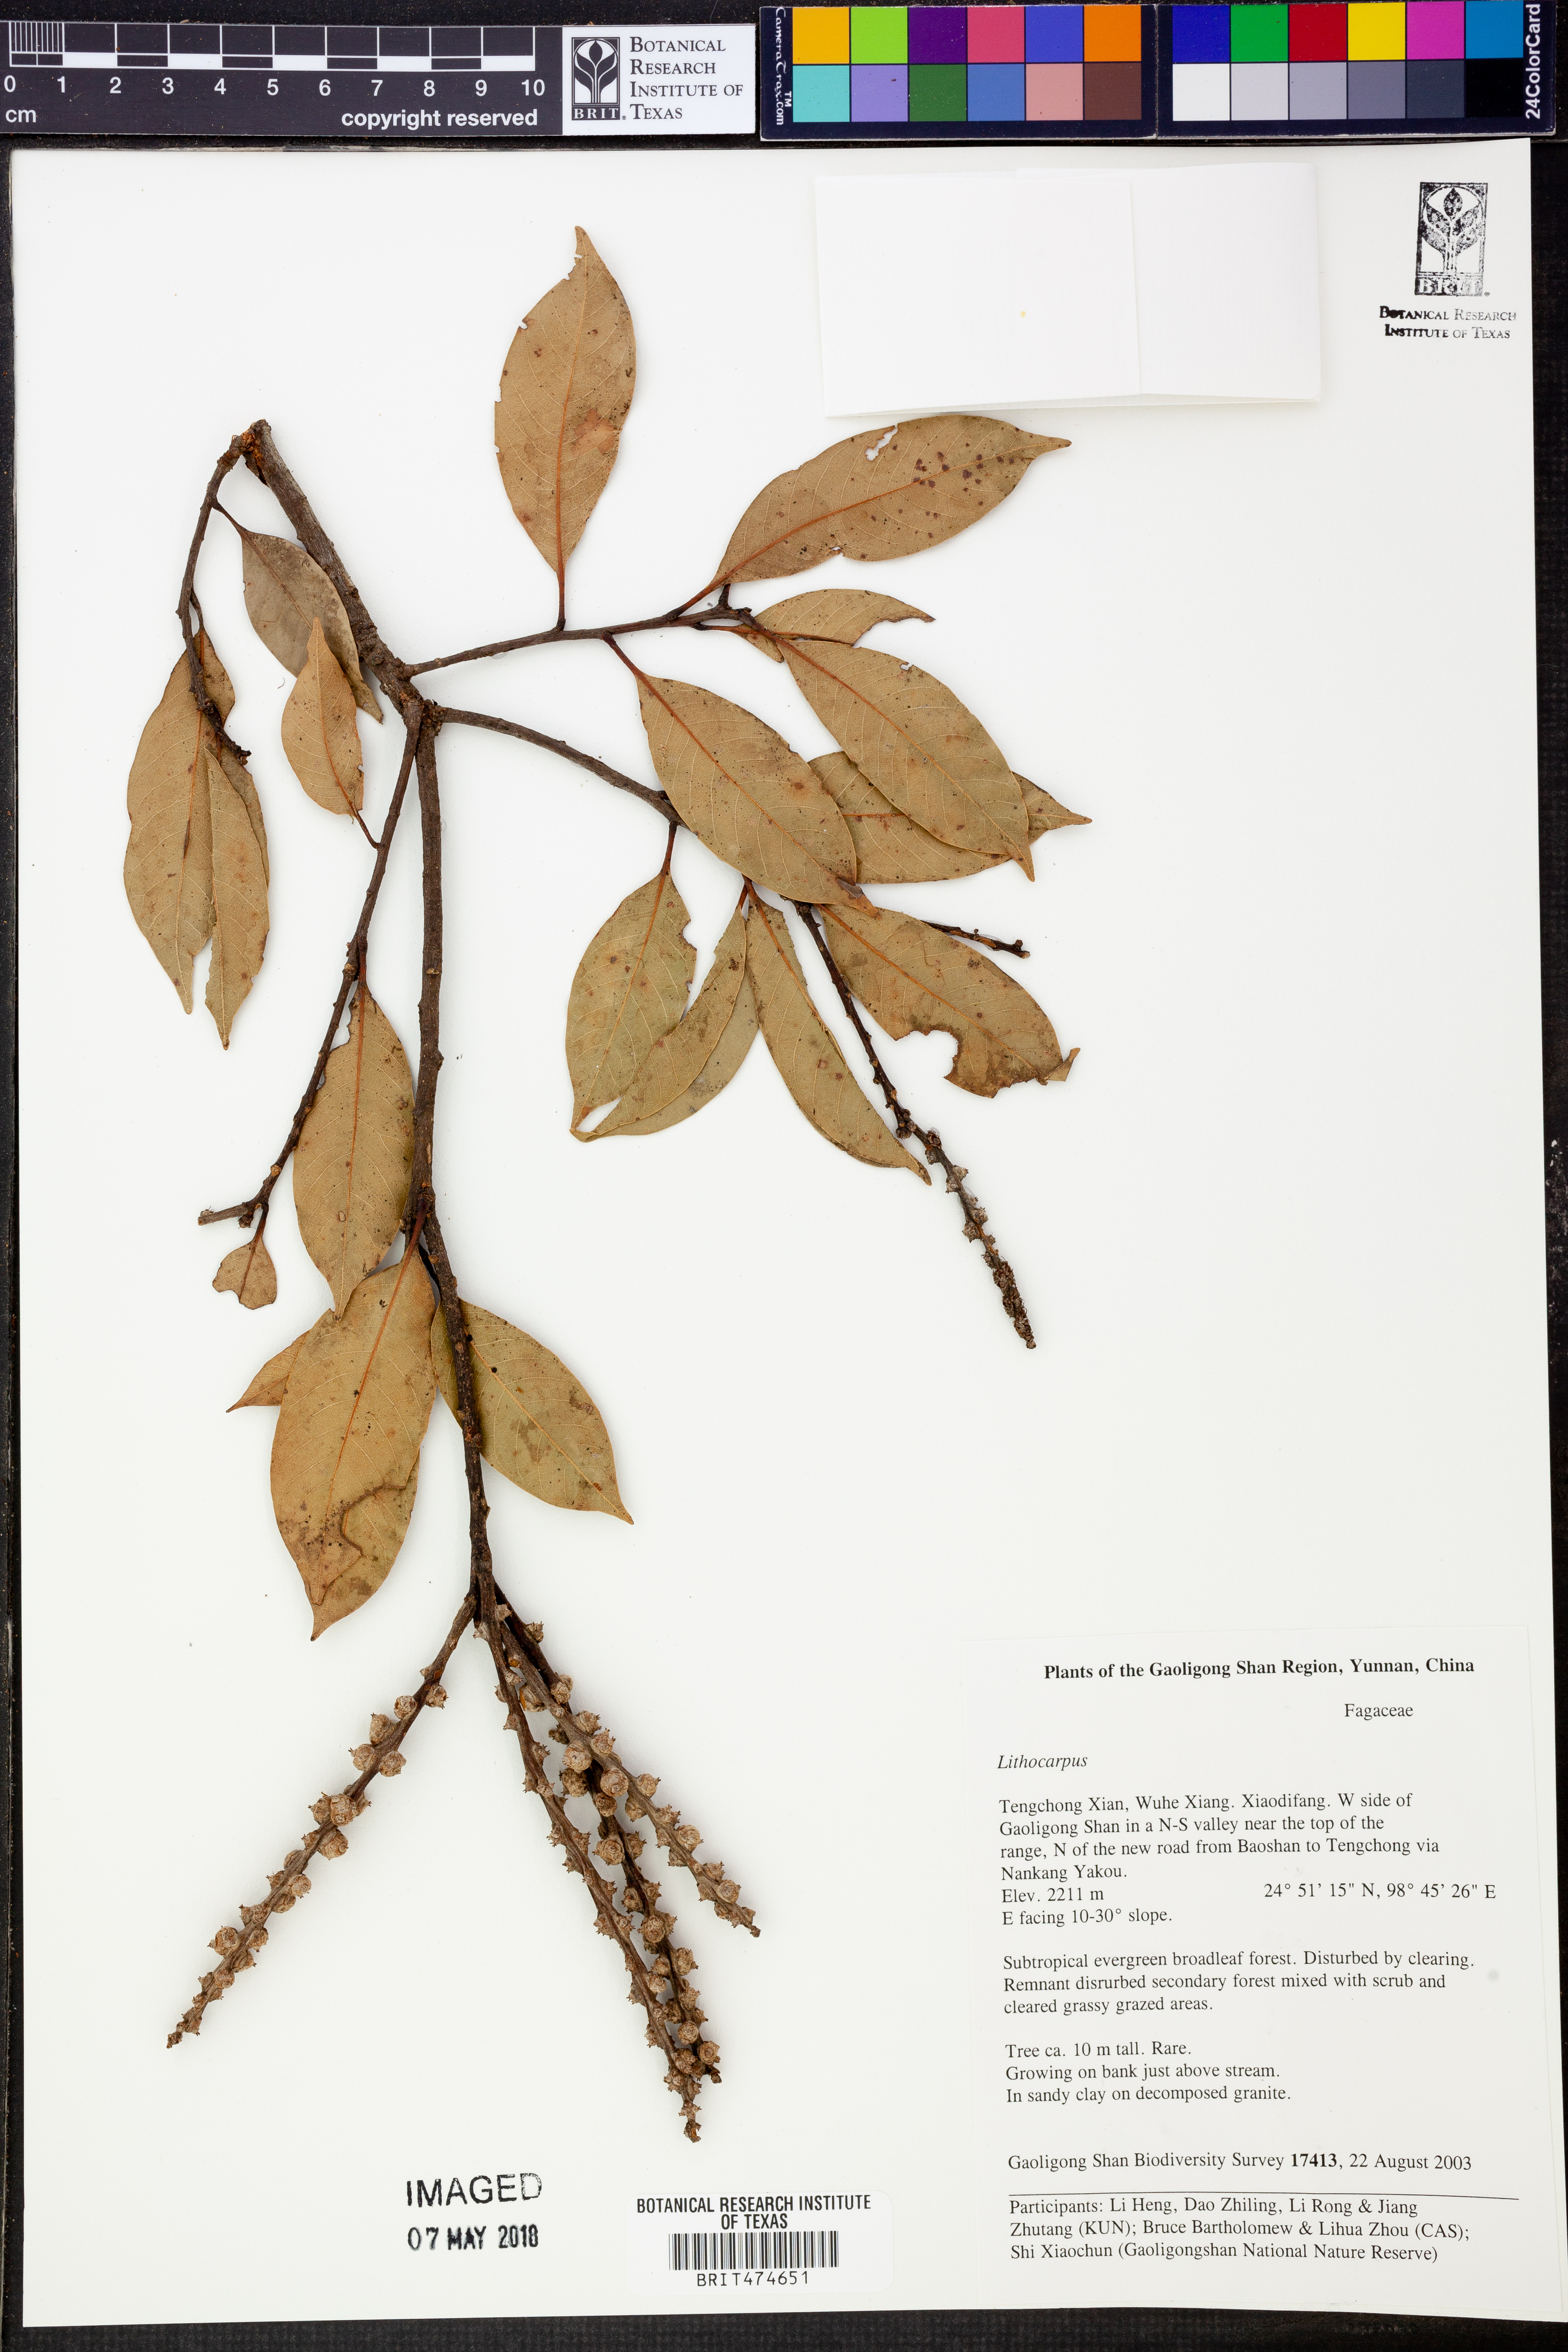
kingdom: Plantae
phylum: Tracheophyta
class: Magnoliopsida
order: Fagales
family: Fagaceae
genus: Lithocarpus
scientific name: Lithocarpus
